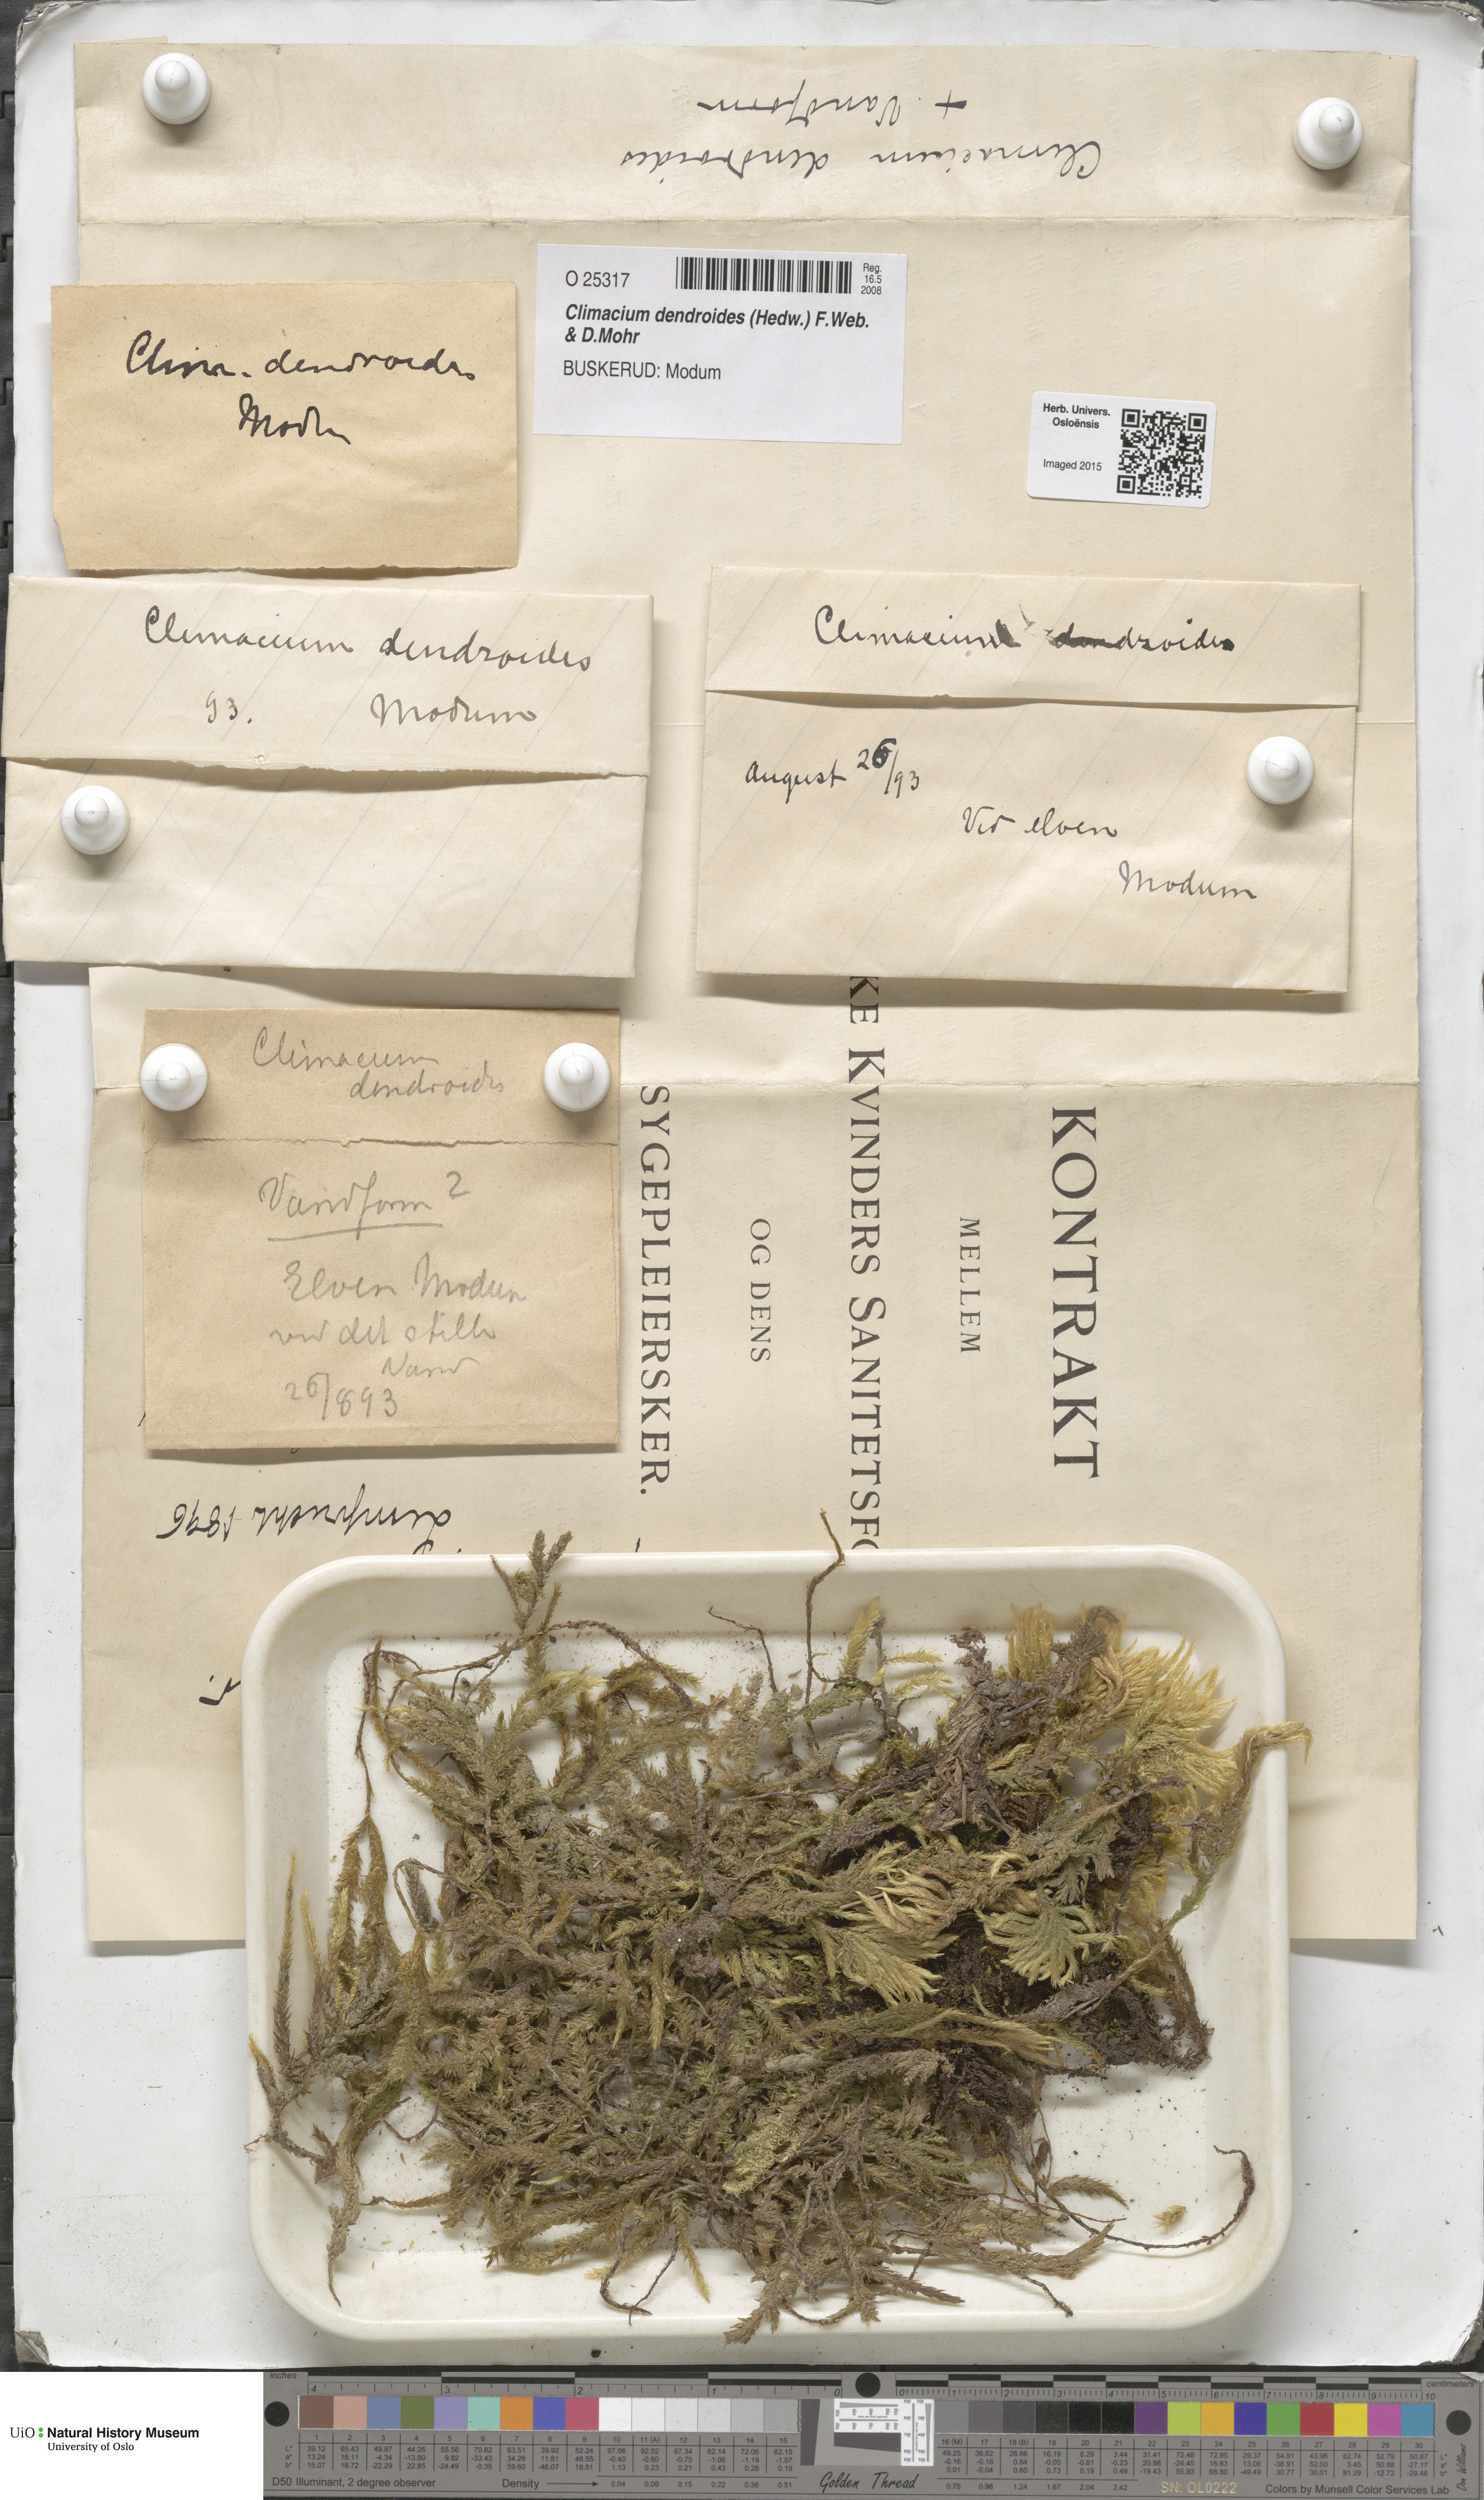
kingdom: Plantae
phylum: Bryophyta
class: Bryopsida
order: Hypnales
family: Climaciaceae
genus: Climacium
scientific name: Climacium dendroides
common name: Northern tree moss
